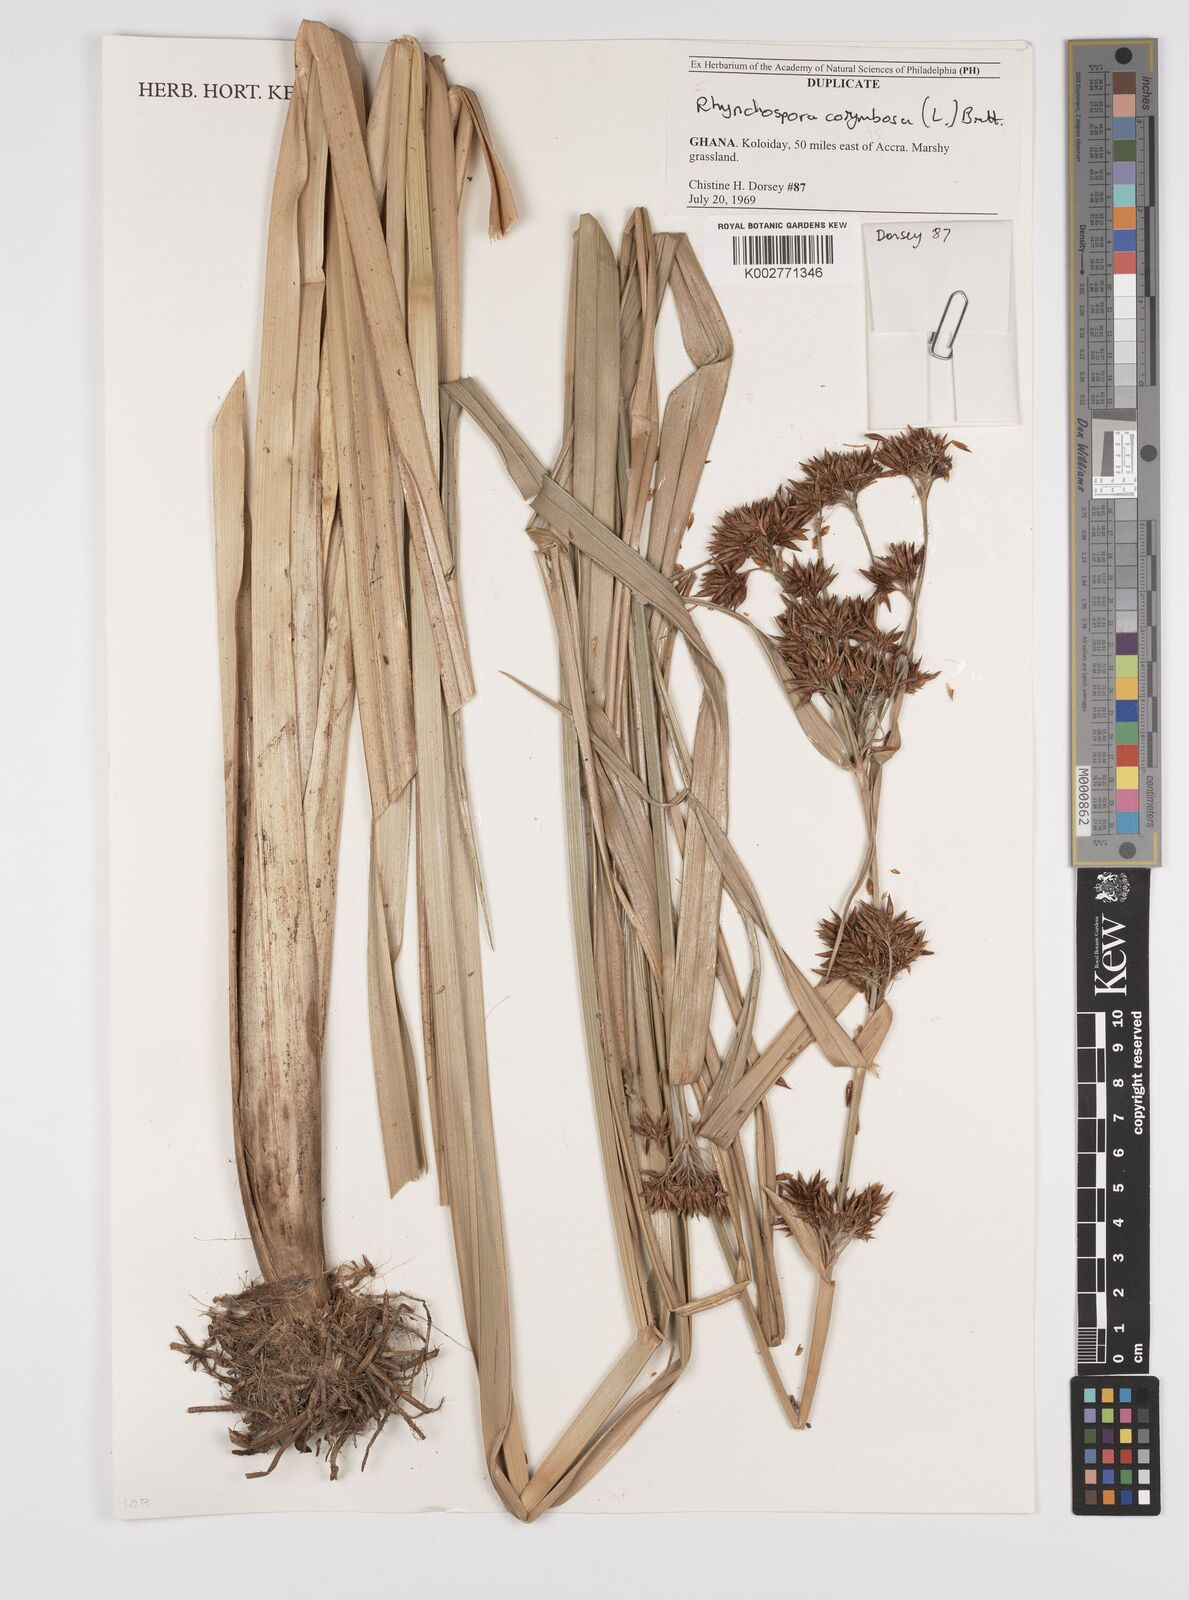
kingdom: Plantae
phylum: Tracheophyta
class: Liliopsida
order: Poales
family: Cyperaceae
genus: Rhynchospora
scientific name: Rhynchospora corymbosa
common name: Golden beak sedge
